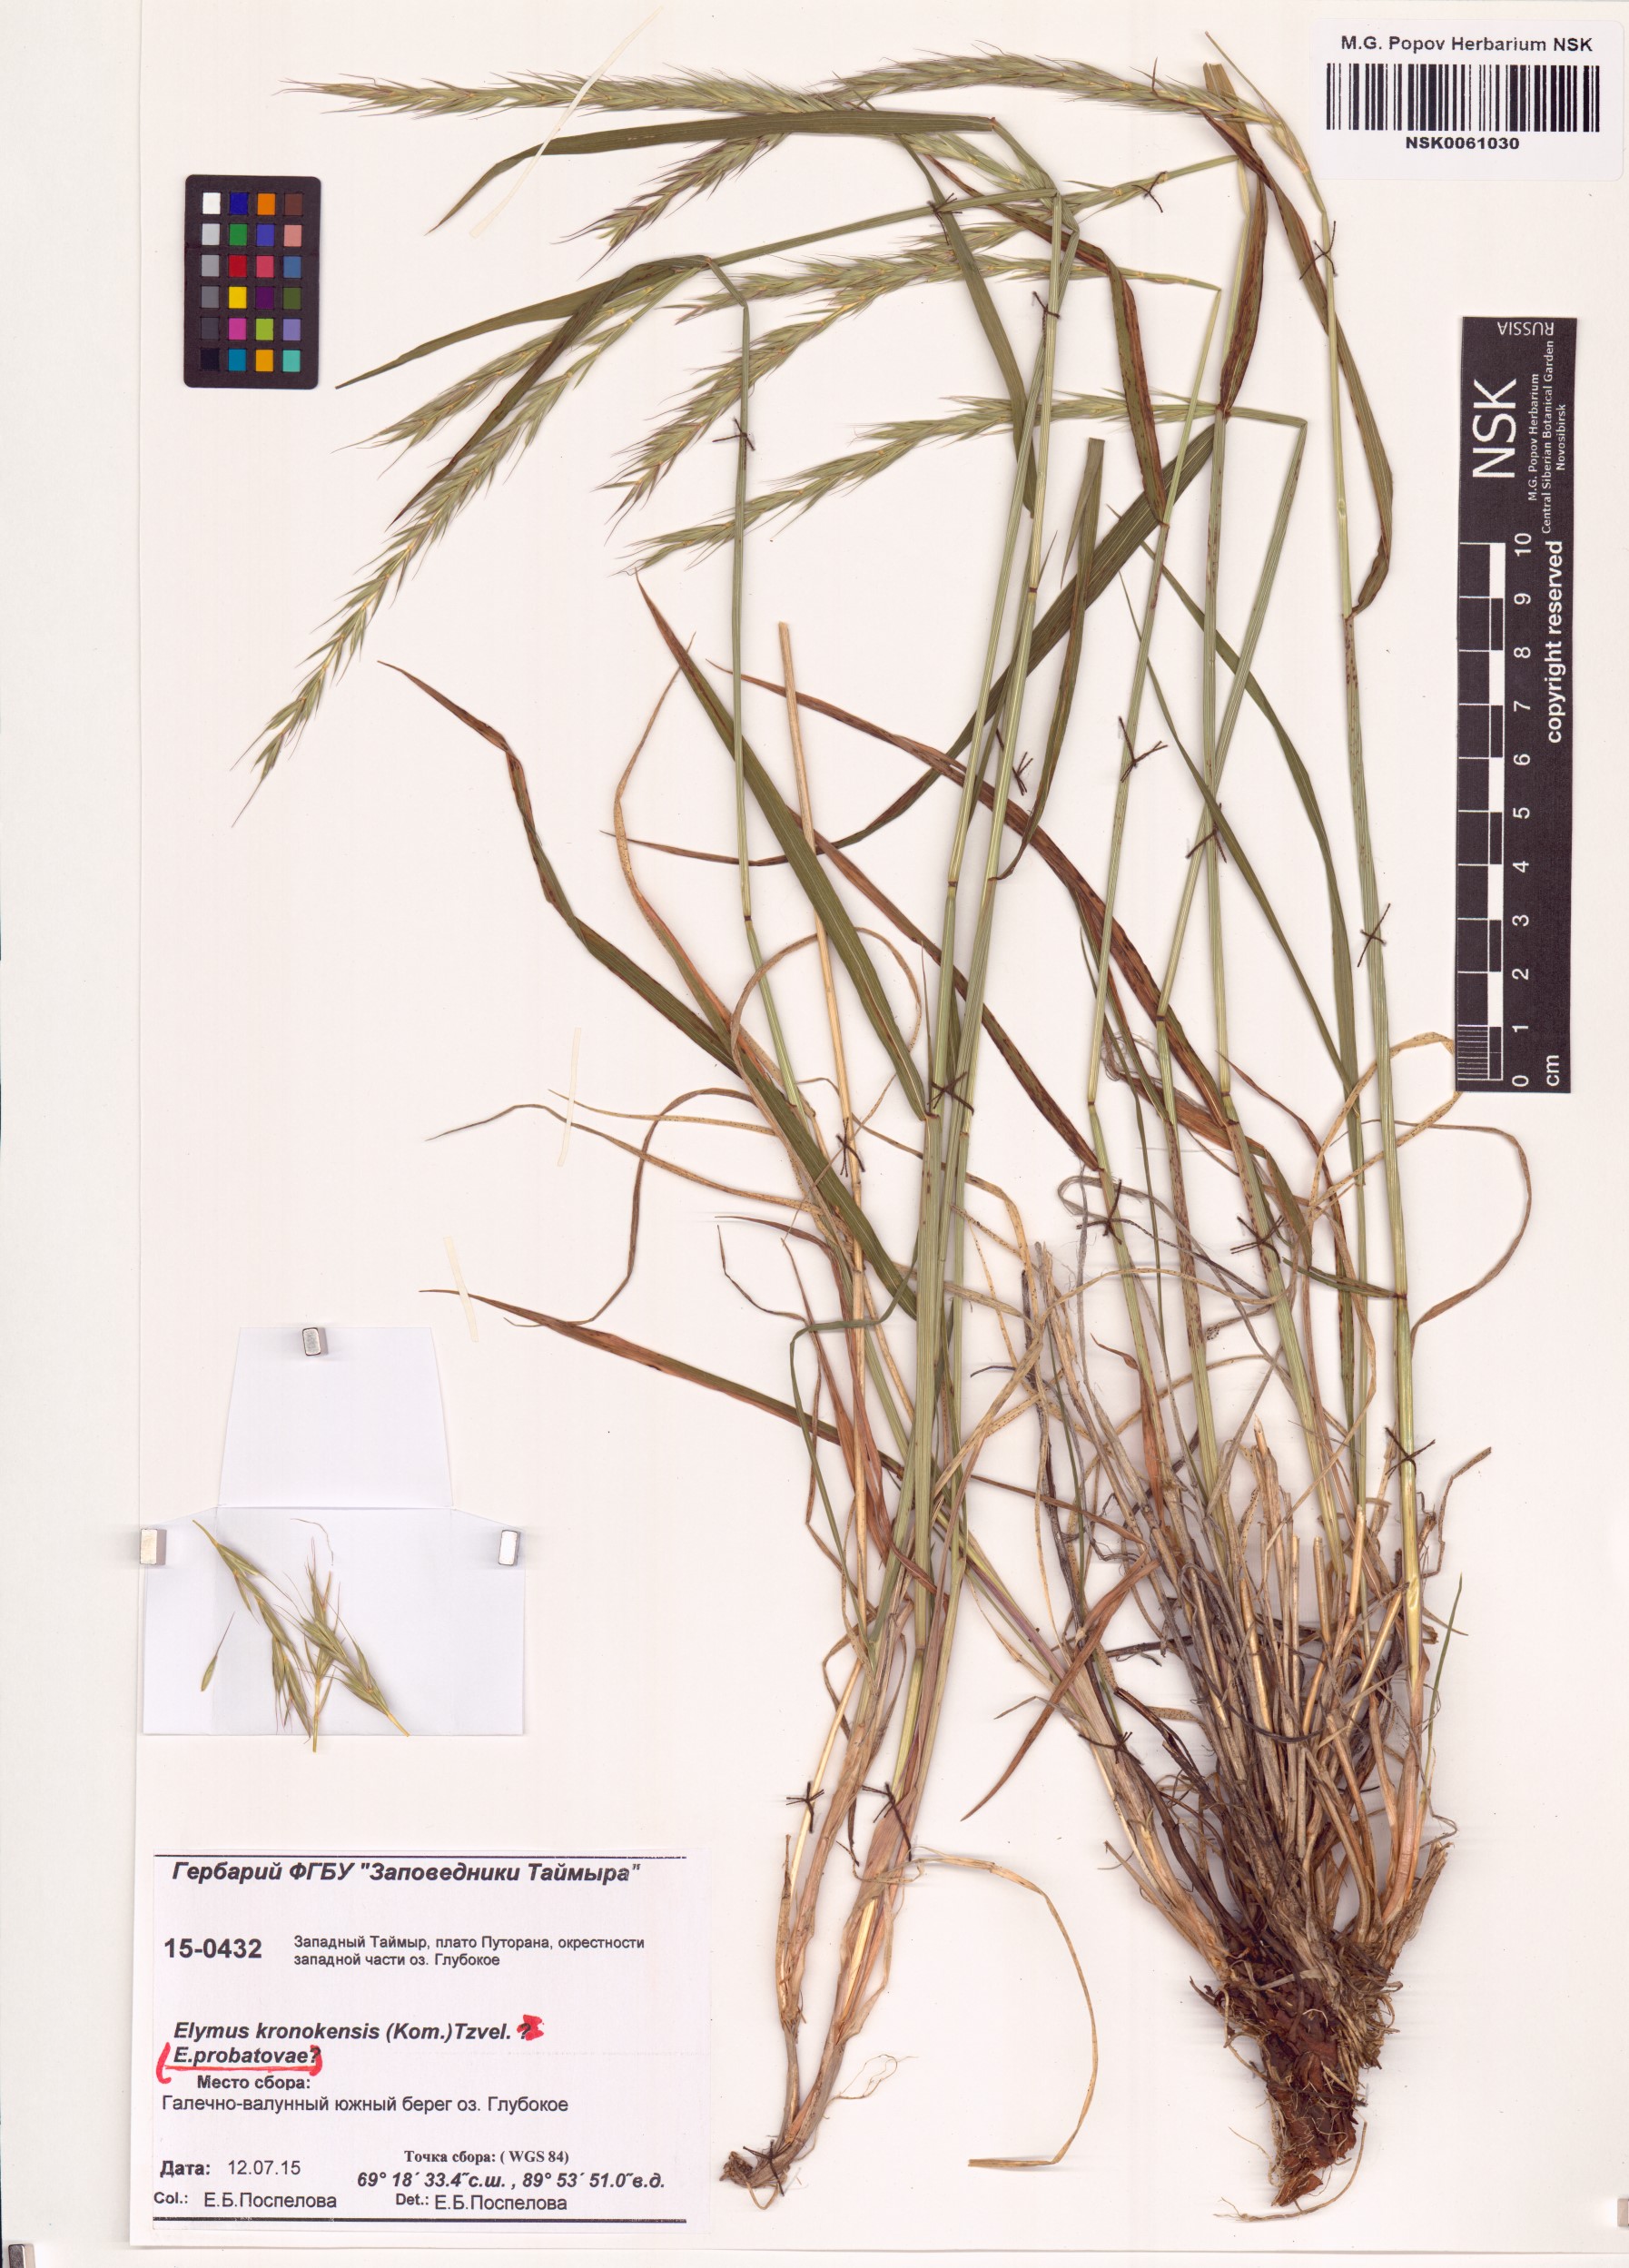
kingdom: Plantae
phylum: Tracheophyta
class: Liliopsida
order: Poales
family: Poaceae
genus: Elymus
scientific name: Elymus macrourus
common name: Northern wheatgrass
